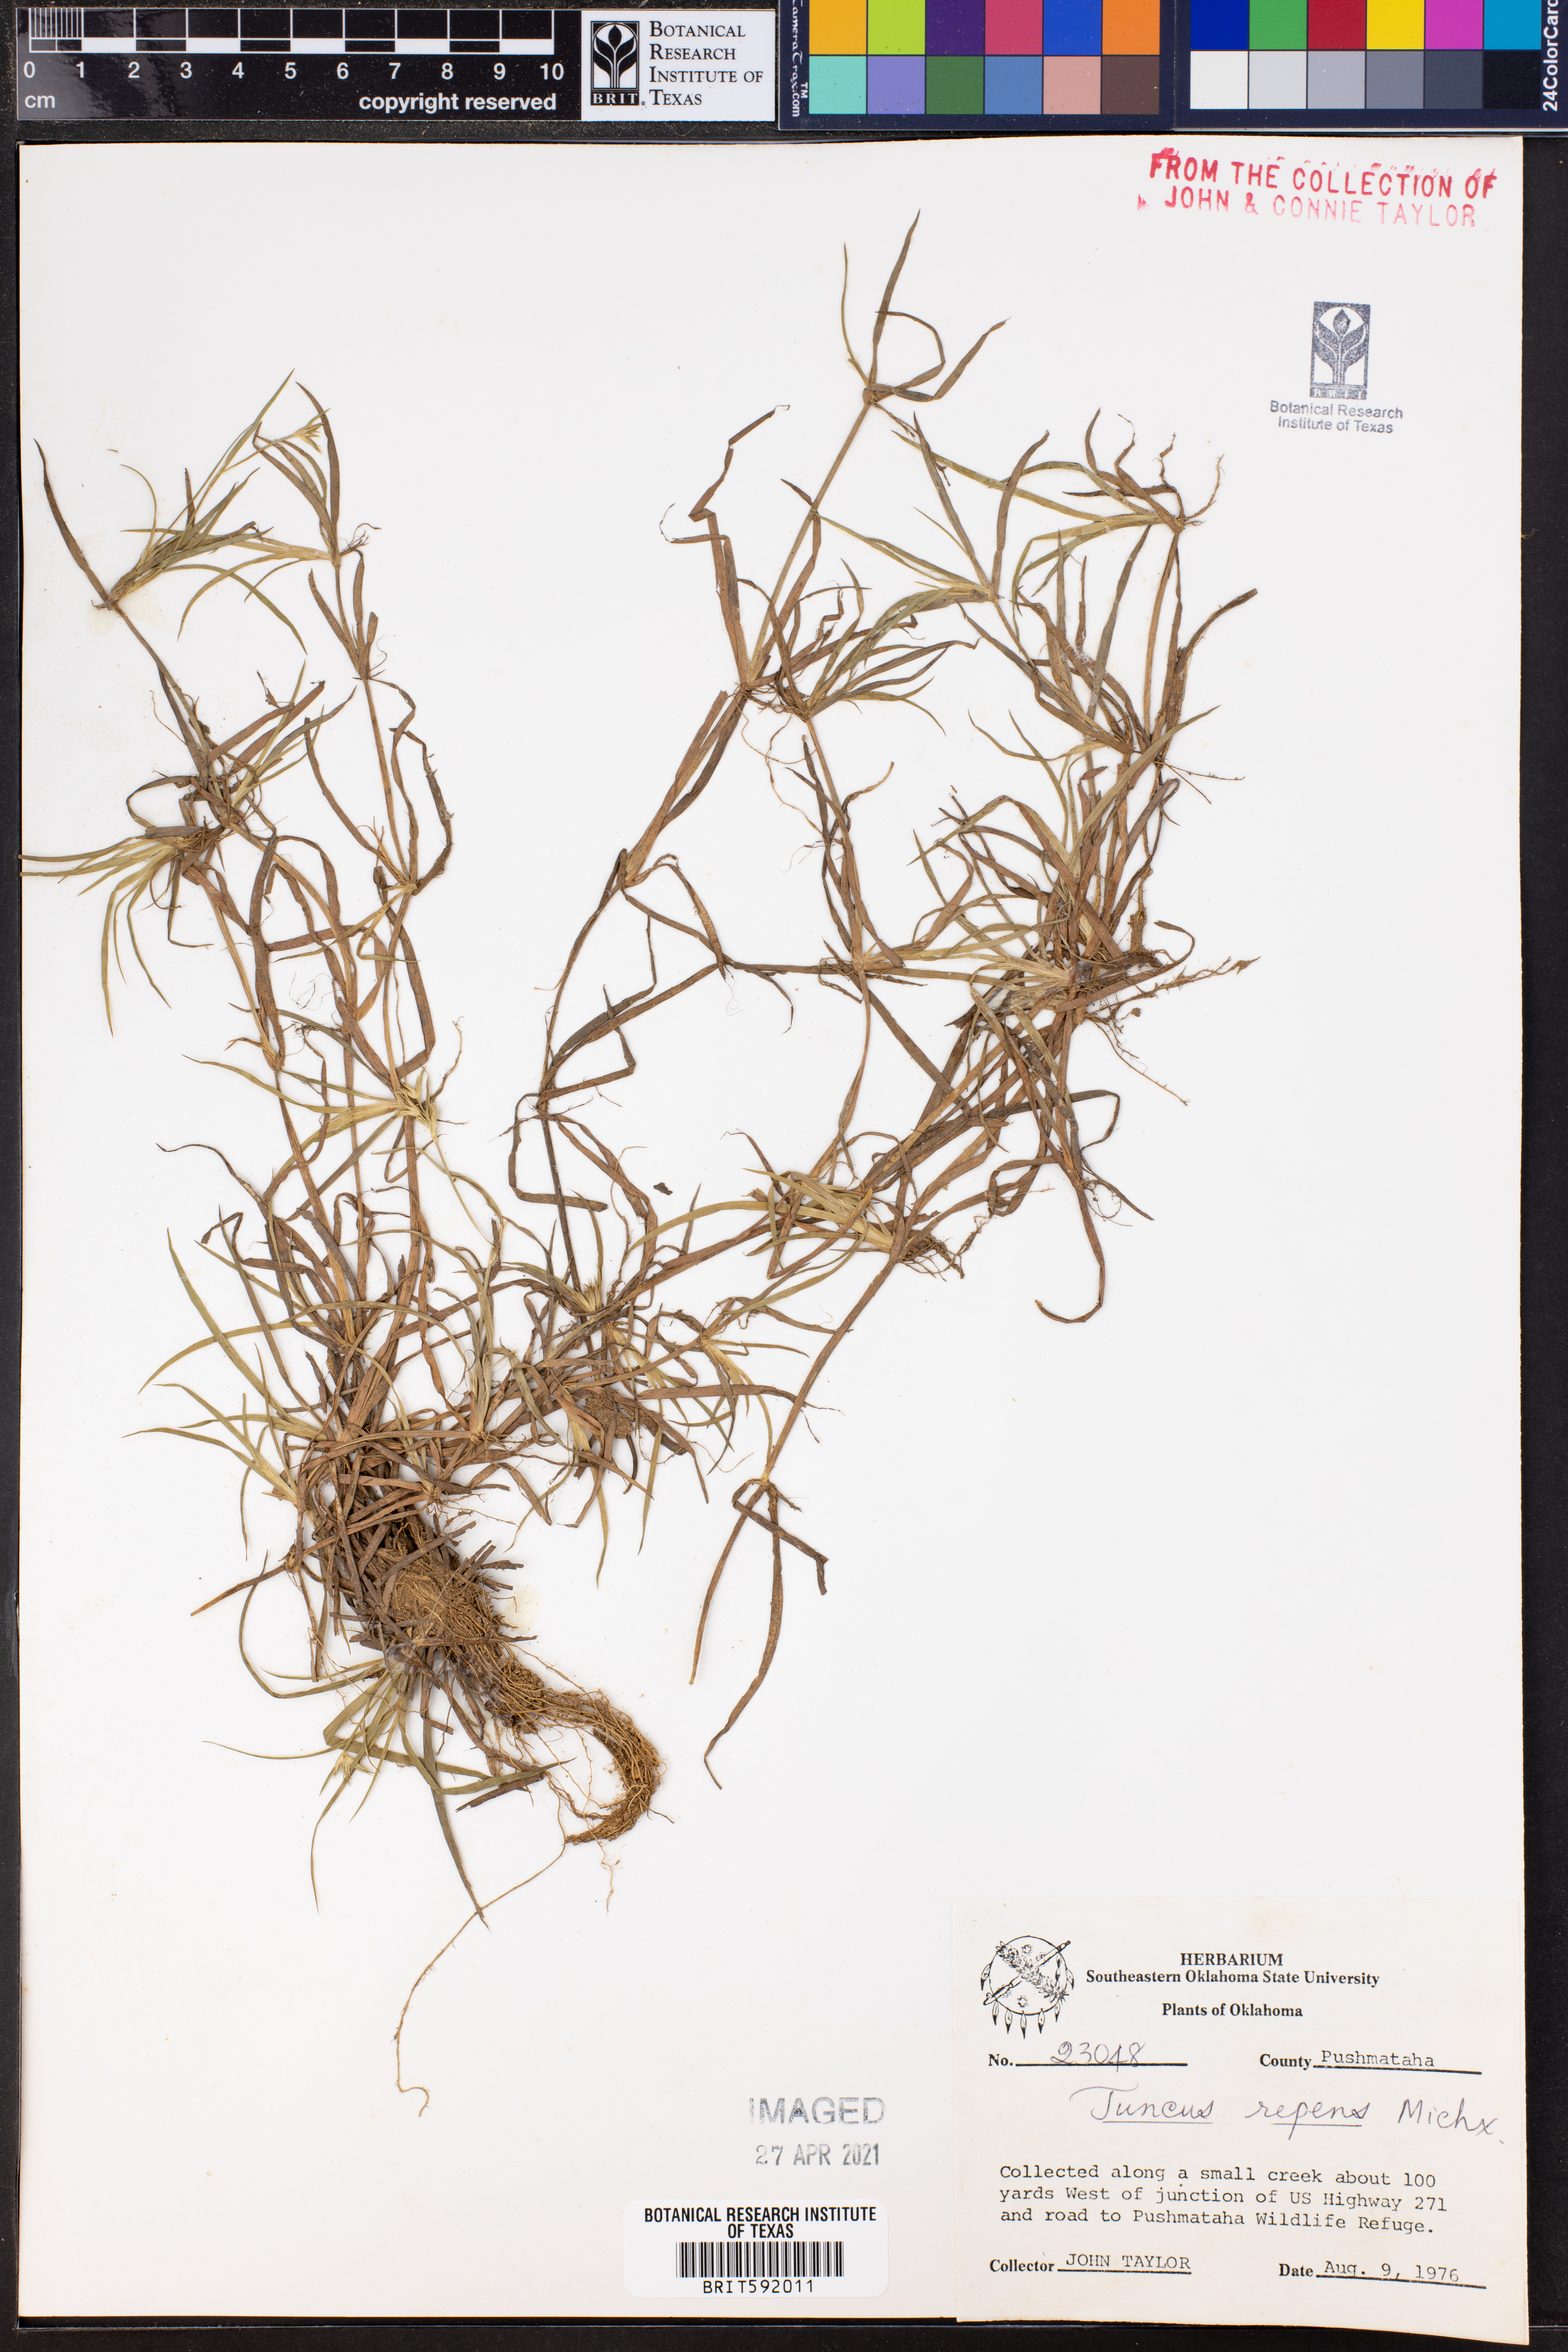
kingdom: Plantae
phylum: Tracheophyta
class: Liliopsida
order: Poales
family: Juncaceae
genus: Juncus
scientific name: Juncus repens
